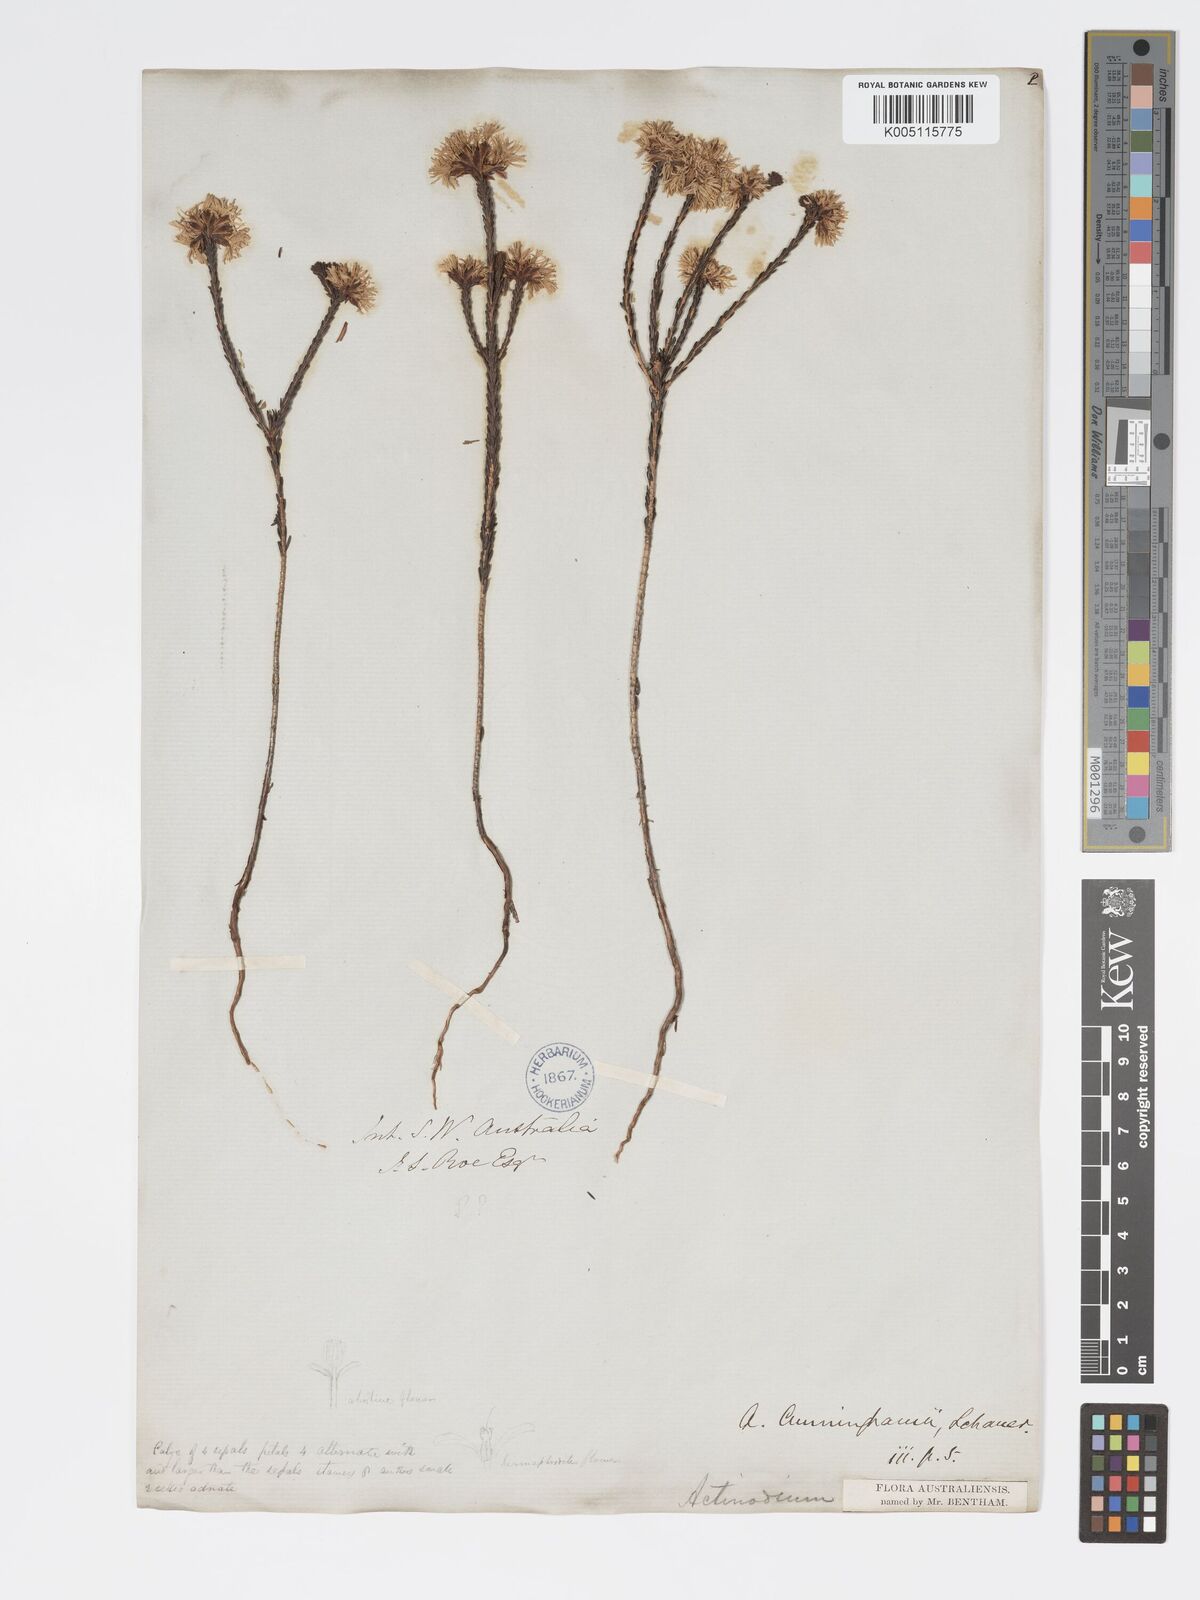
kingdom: Plantae
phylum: Tracheophyta
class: Magnoliopsida
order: Myrtales
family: Myrtaceae
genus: Actinodium
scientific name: Actinodium cunninghamii
